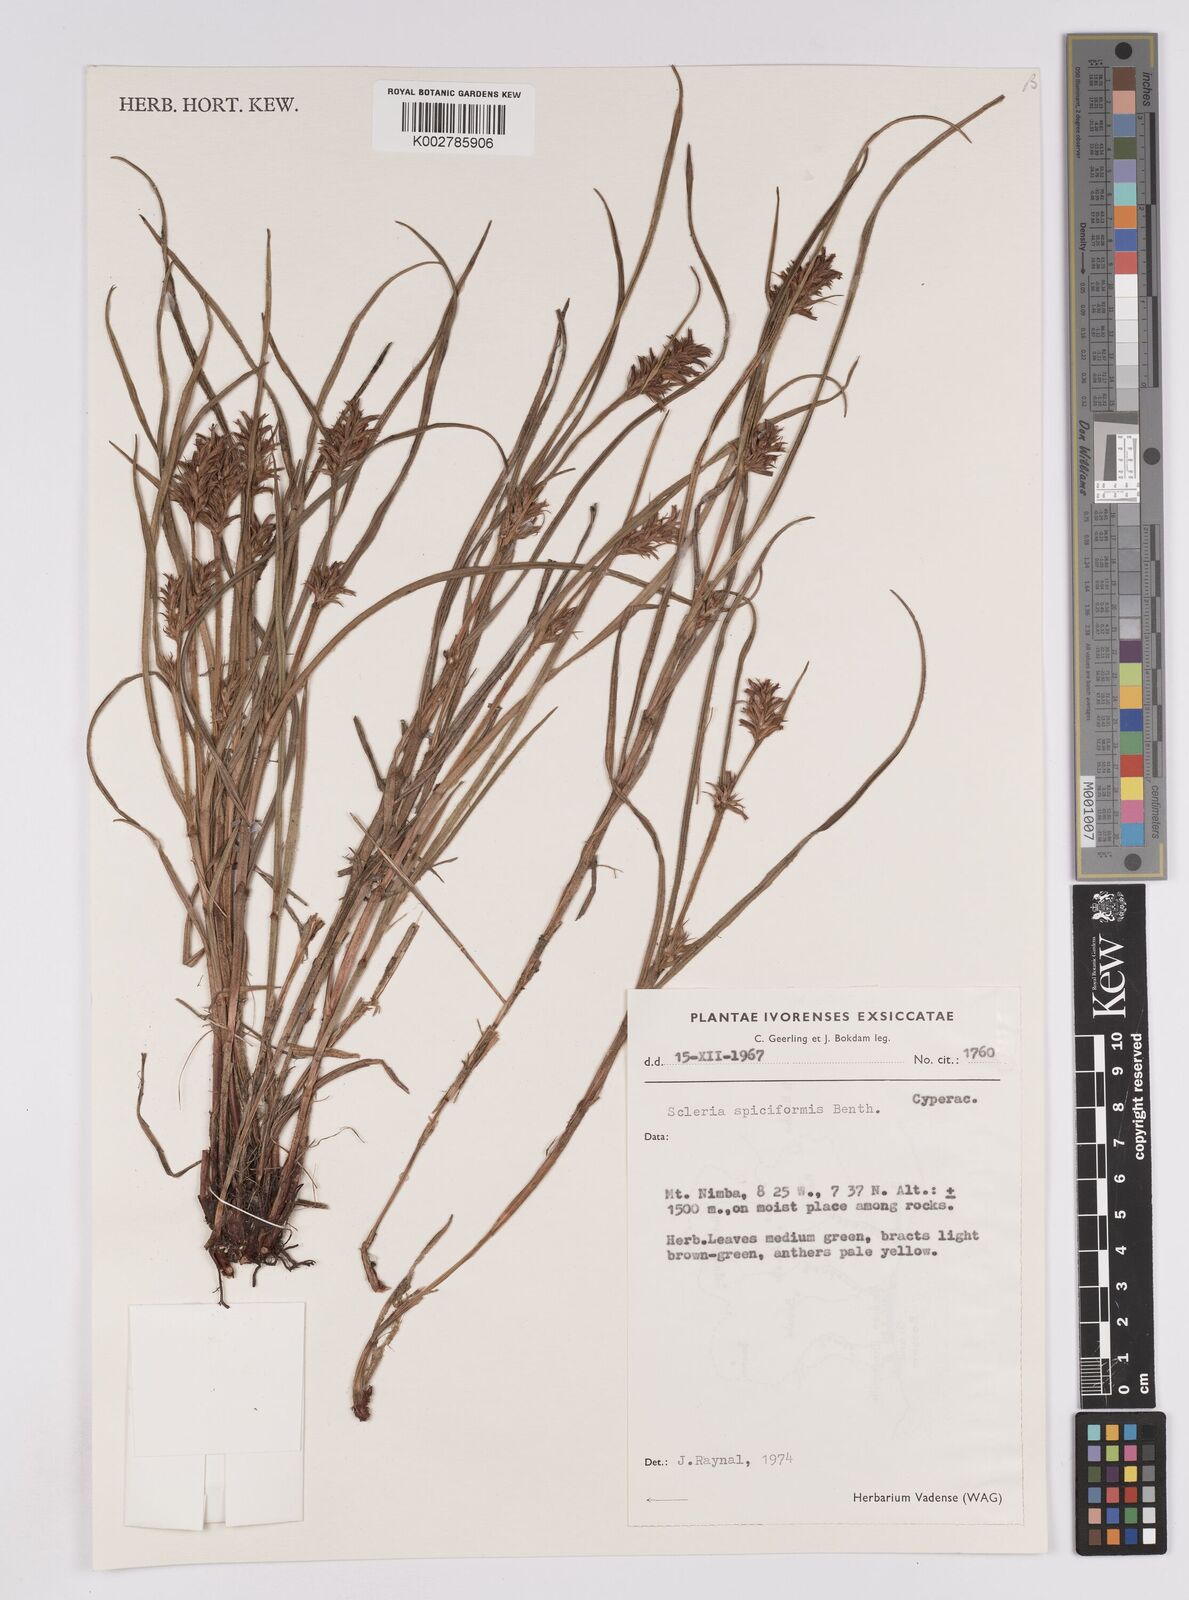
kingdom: Plantae
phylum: Tracheophyta
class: Liliopsida
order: Poales
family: Cyperaceae
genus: Scleria
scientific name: Scleria spiciformis
